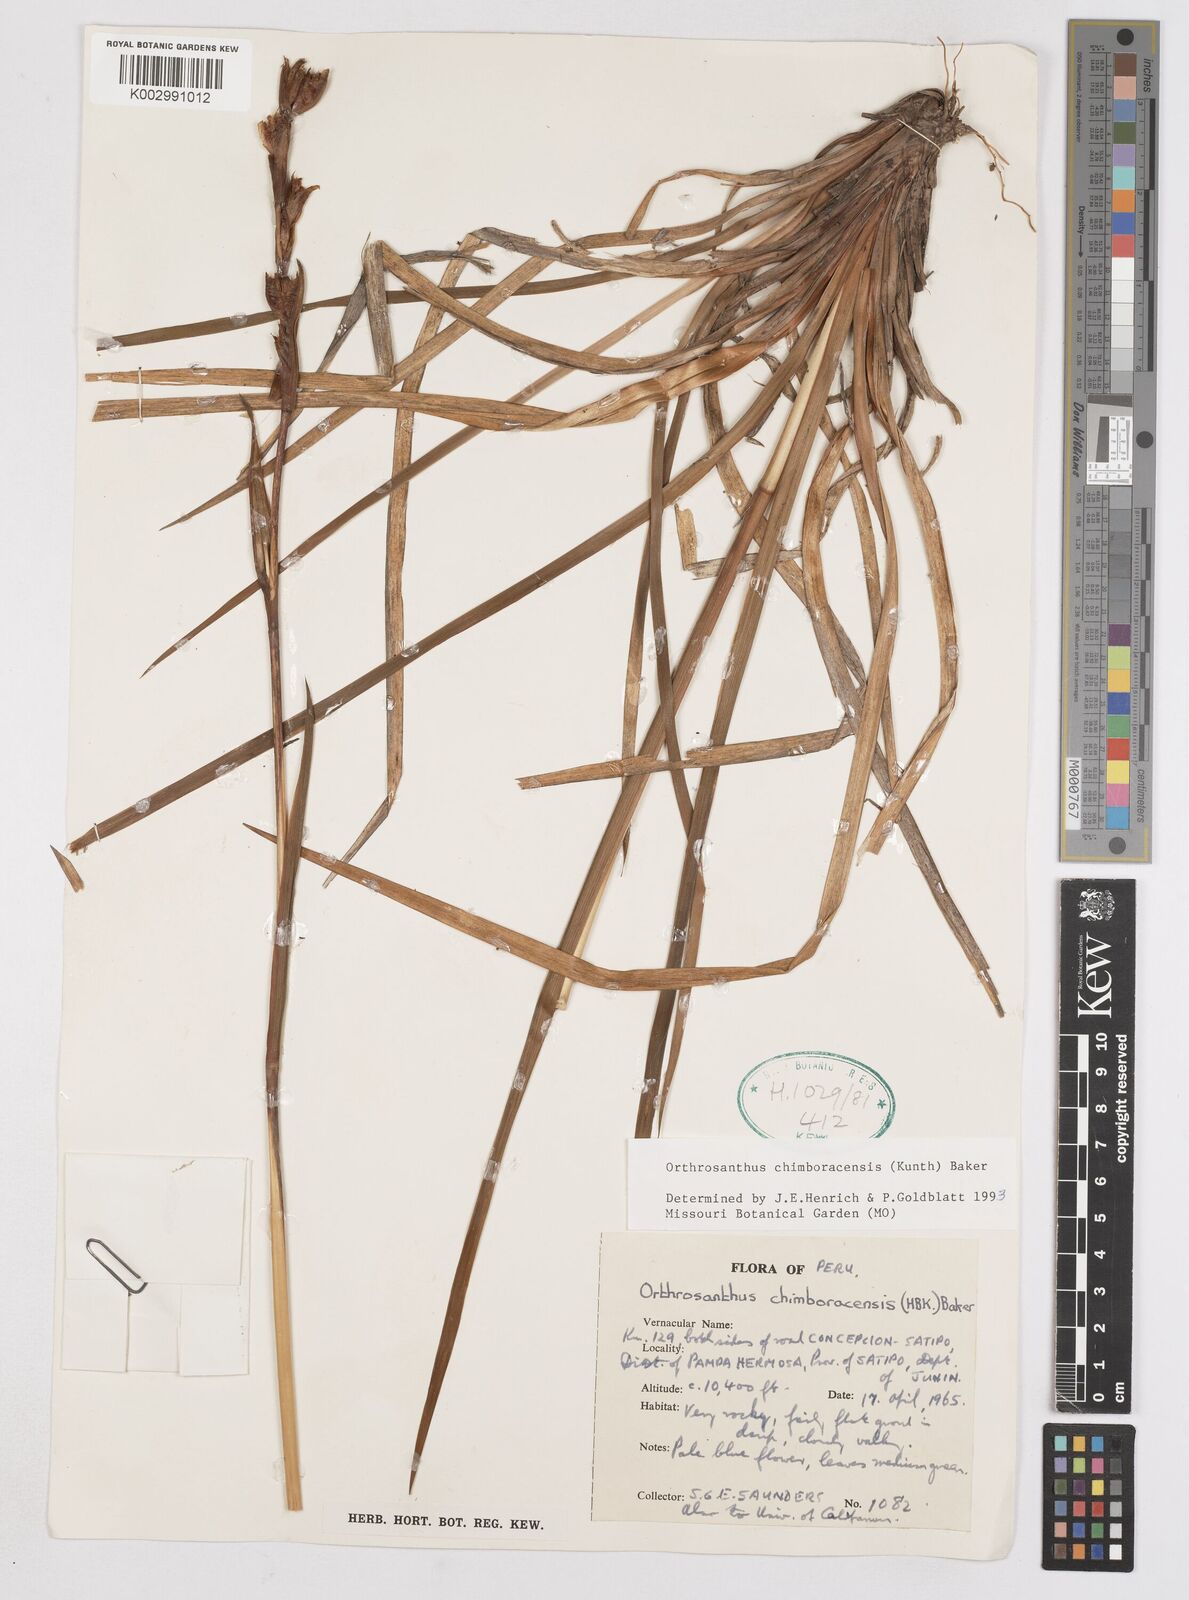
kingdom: Plantae
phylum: Tracheophyta
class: Liliopsida
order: Asparagales
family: Iridaceae
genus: Orthrosanthus
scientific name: Orthrosanthus chimboracensis
